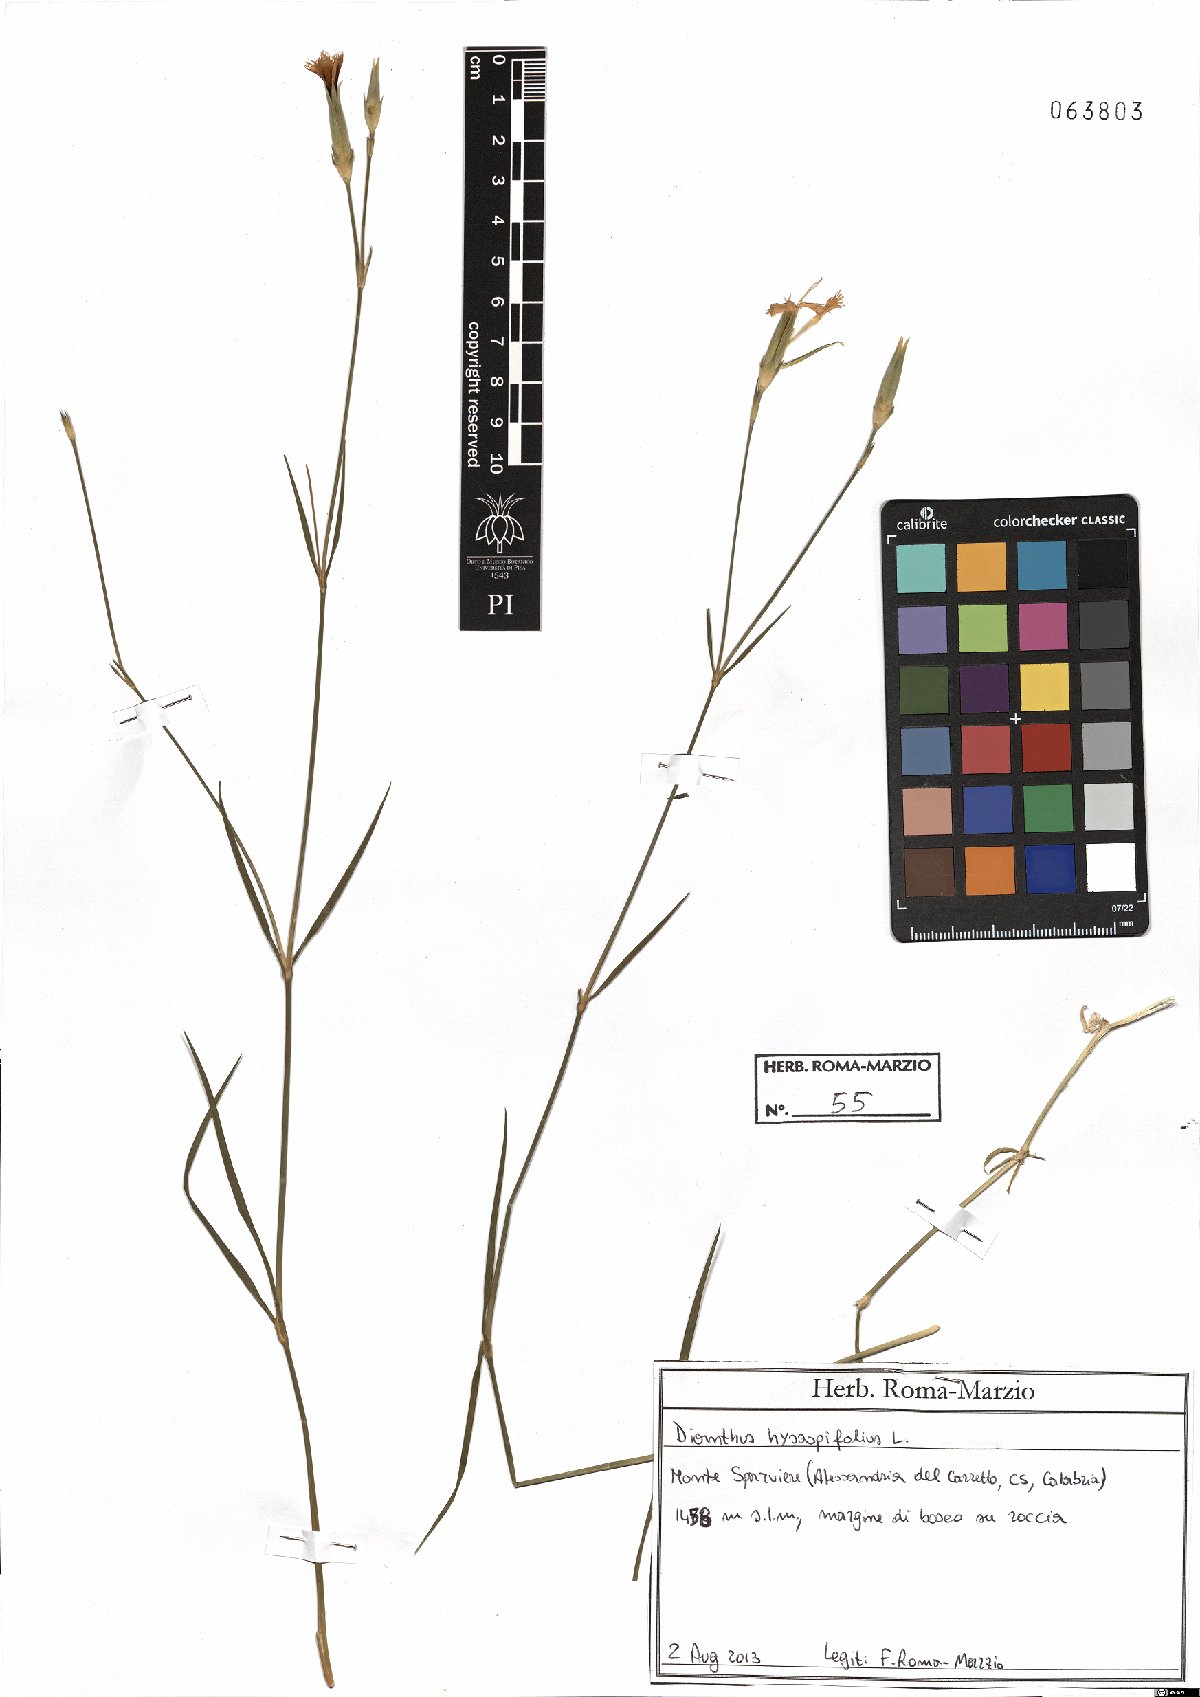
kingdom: Plantae
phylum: Tracheophyta
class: Magnoliopsida
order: Caryophyllales
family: Caryophyllaceae
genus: Dianthus
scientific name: Dianthus hyssopifolius
